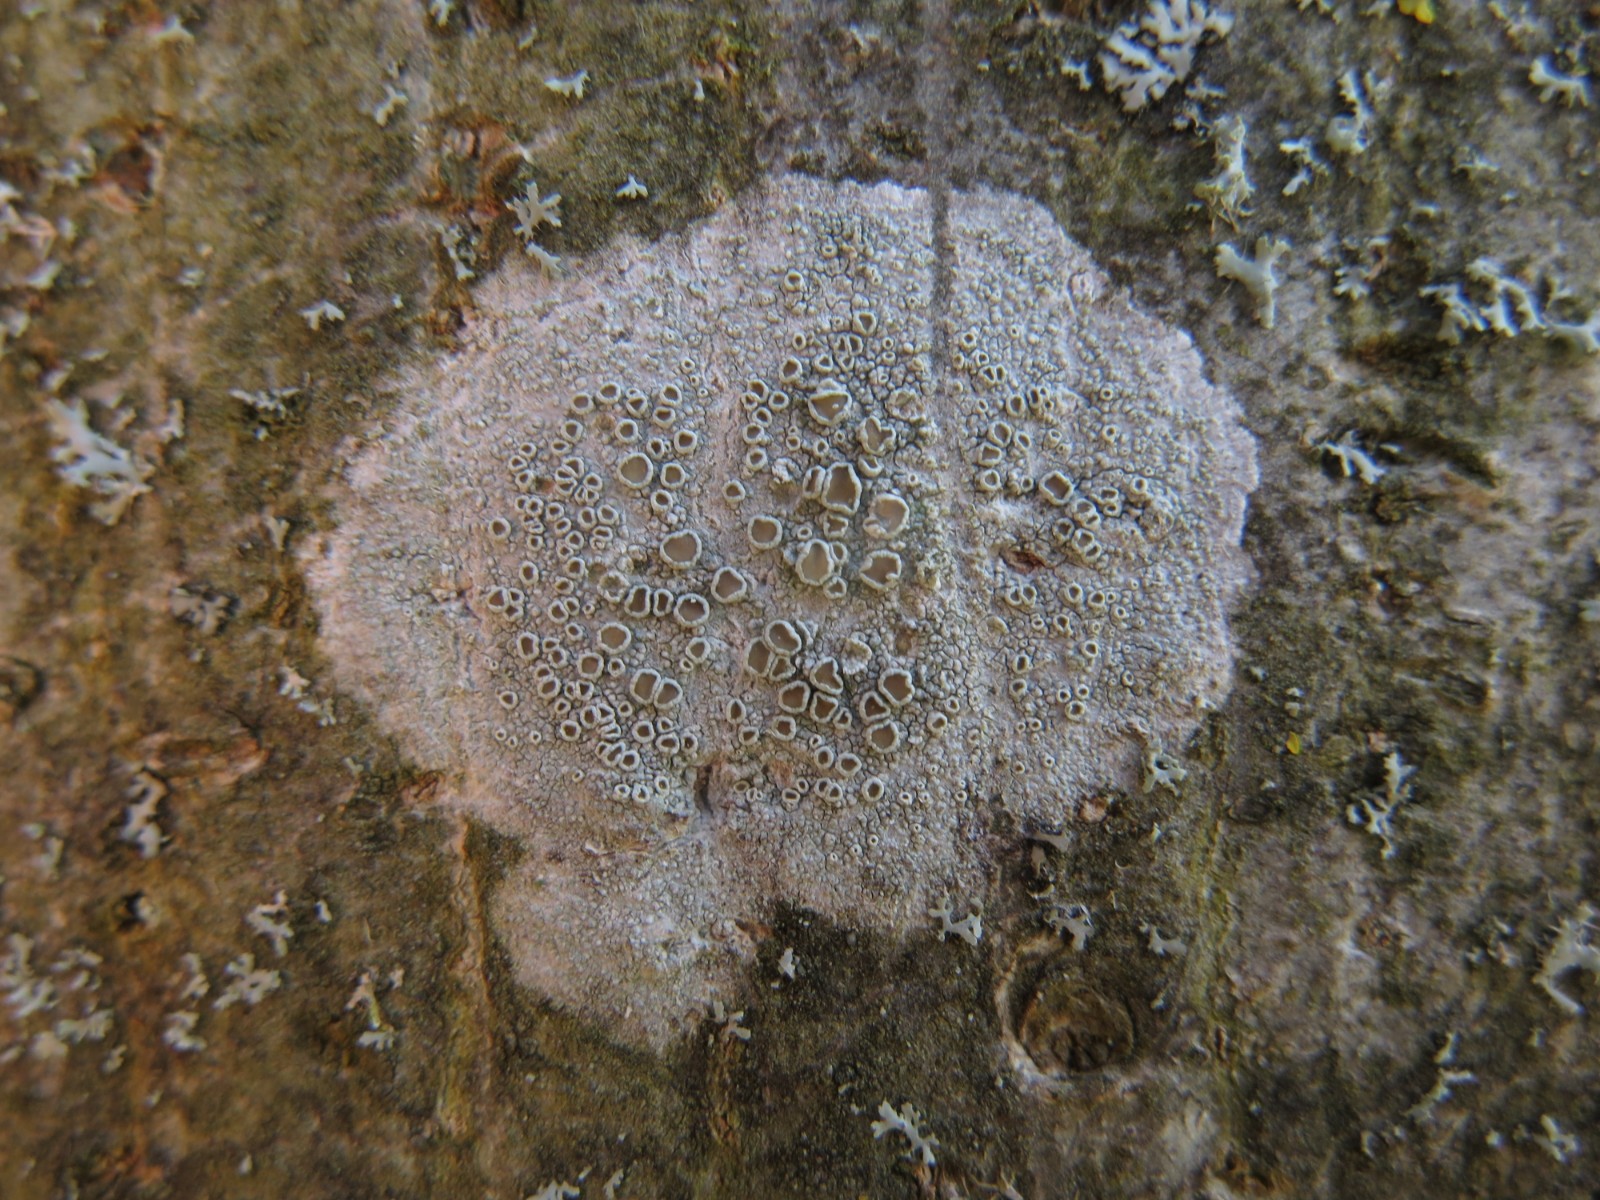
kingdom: Fungi
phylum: Ascomycota
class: Lecanoromycetes
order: Lecanorales
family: Lecanoraceae
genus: Lecanora
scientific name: Lecanora chlarotera
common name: brun kantskivelav
